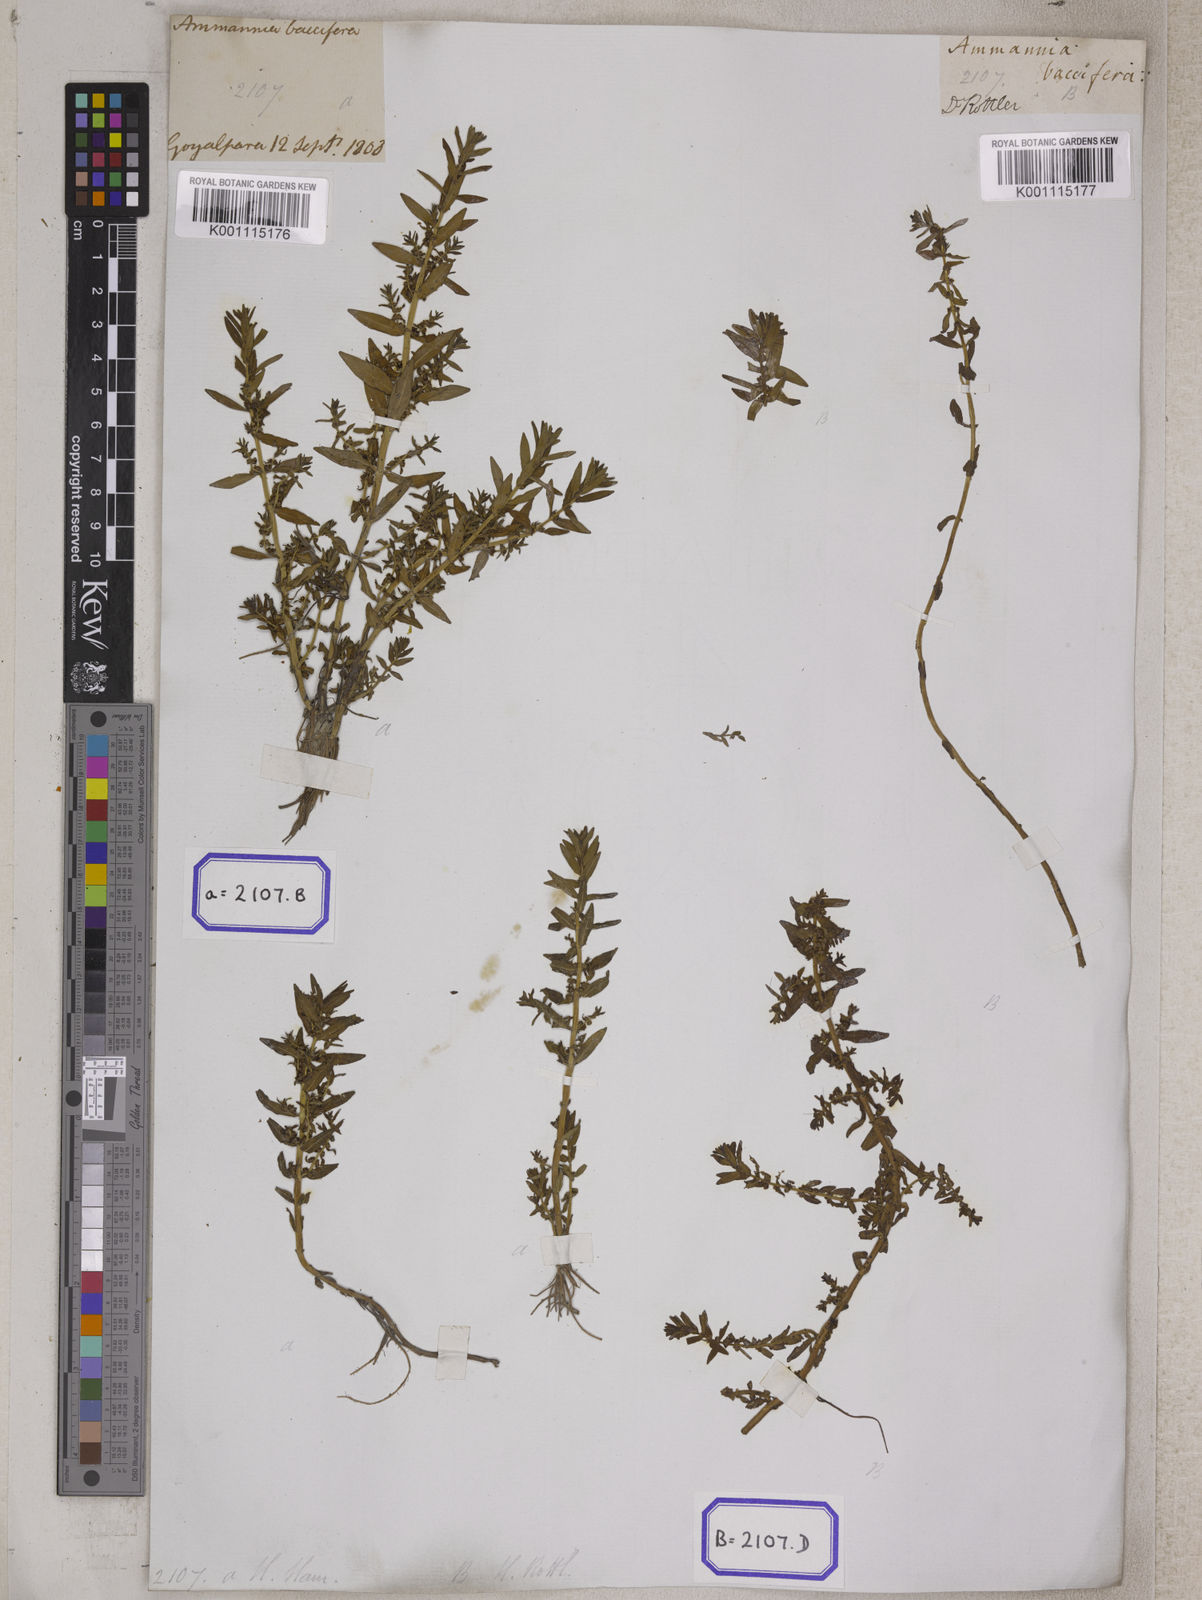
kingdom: Plantae
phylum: Tracheophyta
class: Magnoliopsida
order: Myrtales
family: Lythraceae
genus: Ammannia
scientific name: Ammannia
